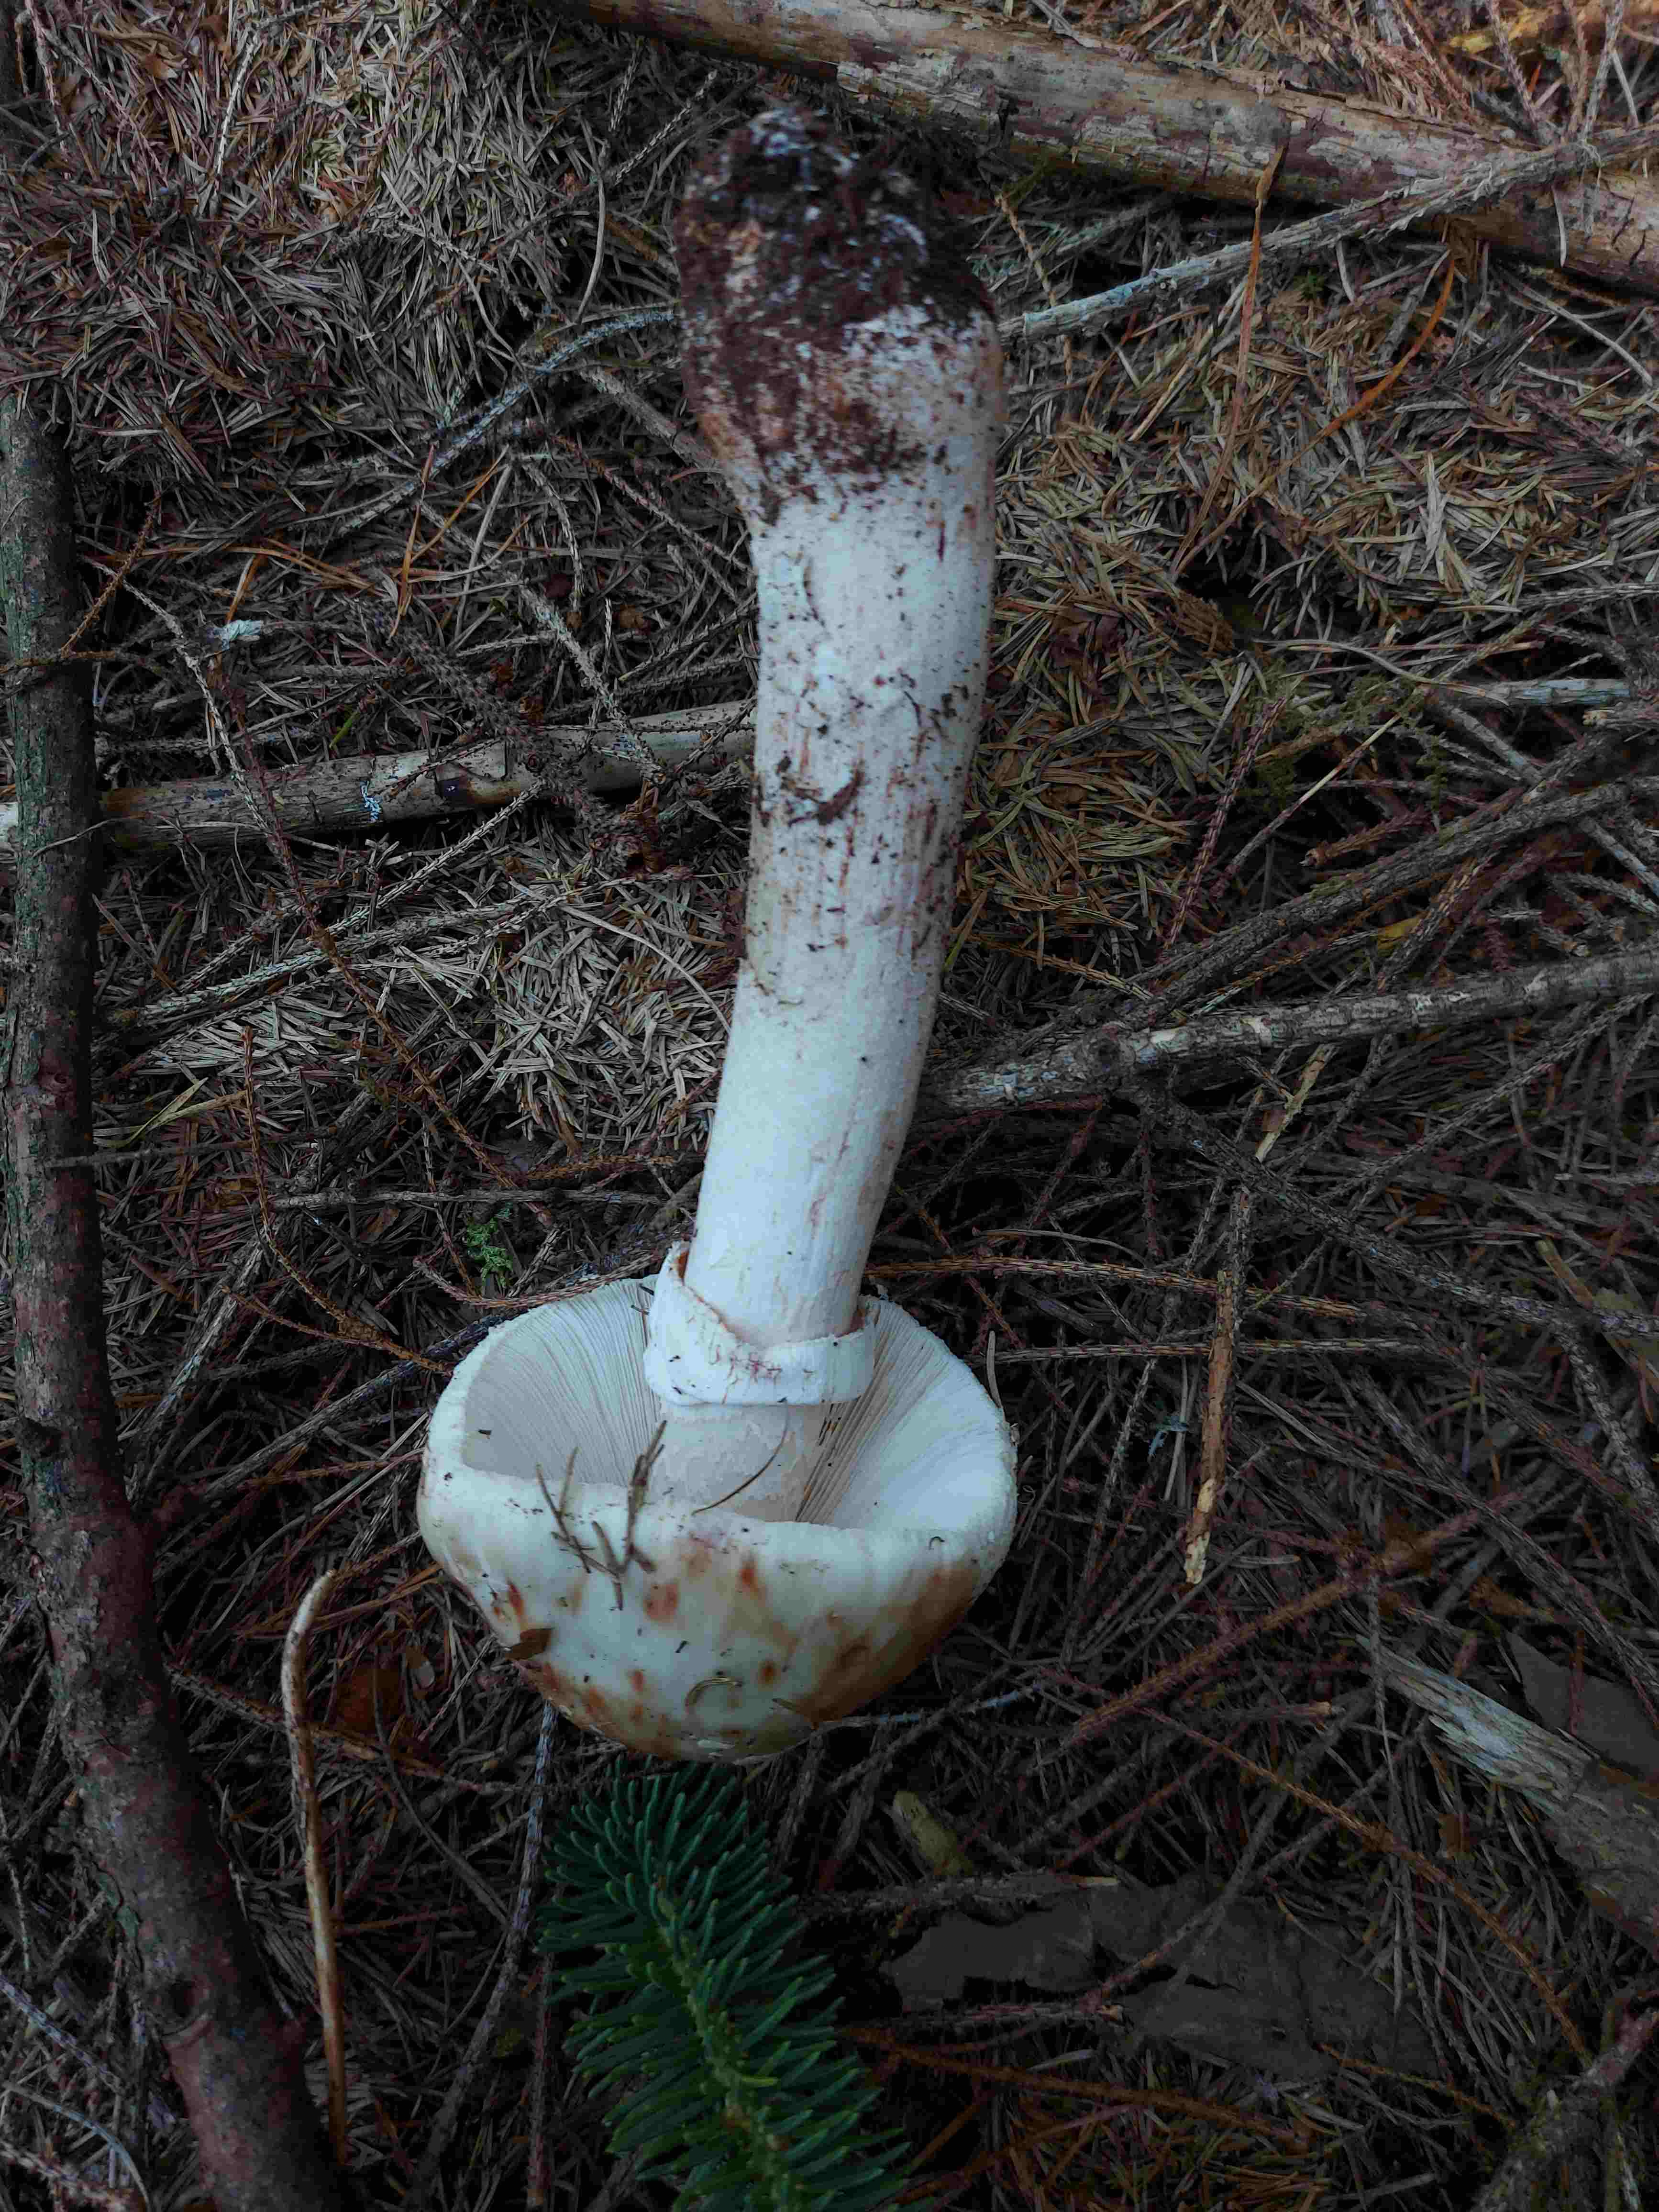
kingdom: Fungi
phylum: Basidiomycota
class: Agaricomycetes
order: Agaricales
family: Amanitaceae
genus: Amanita
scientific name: Amanita rubescens
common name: rødmende fluesvamp
